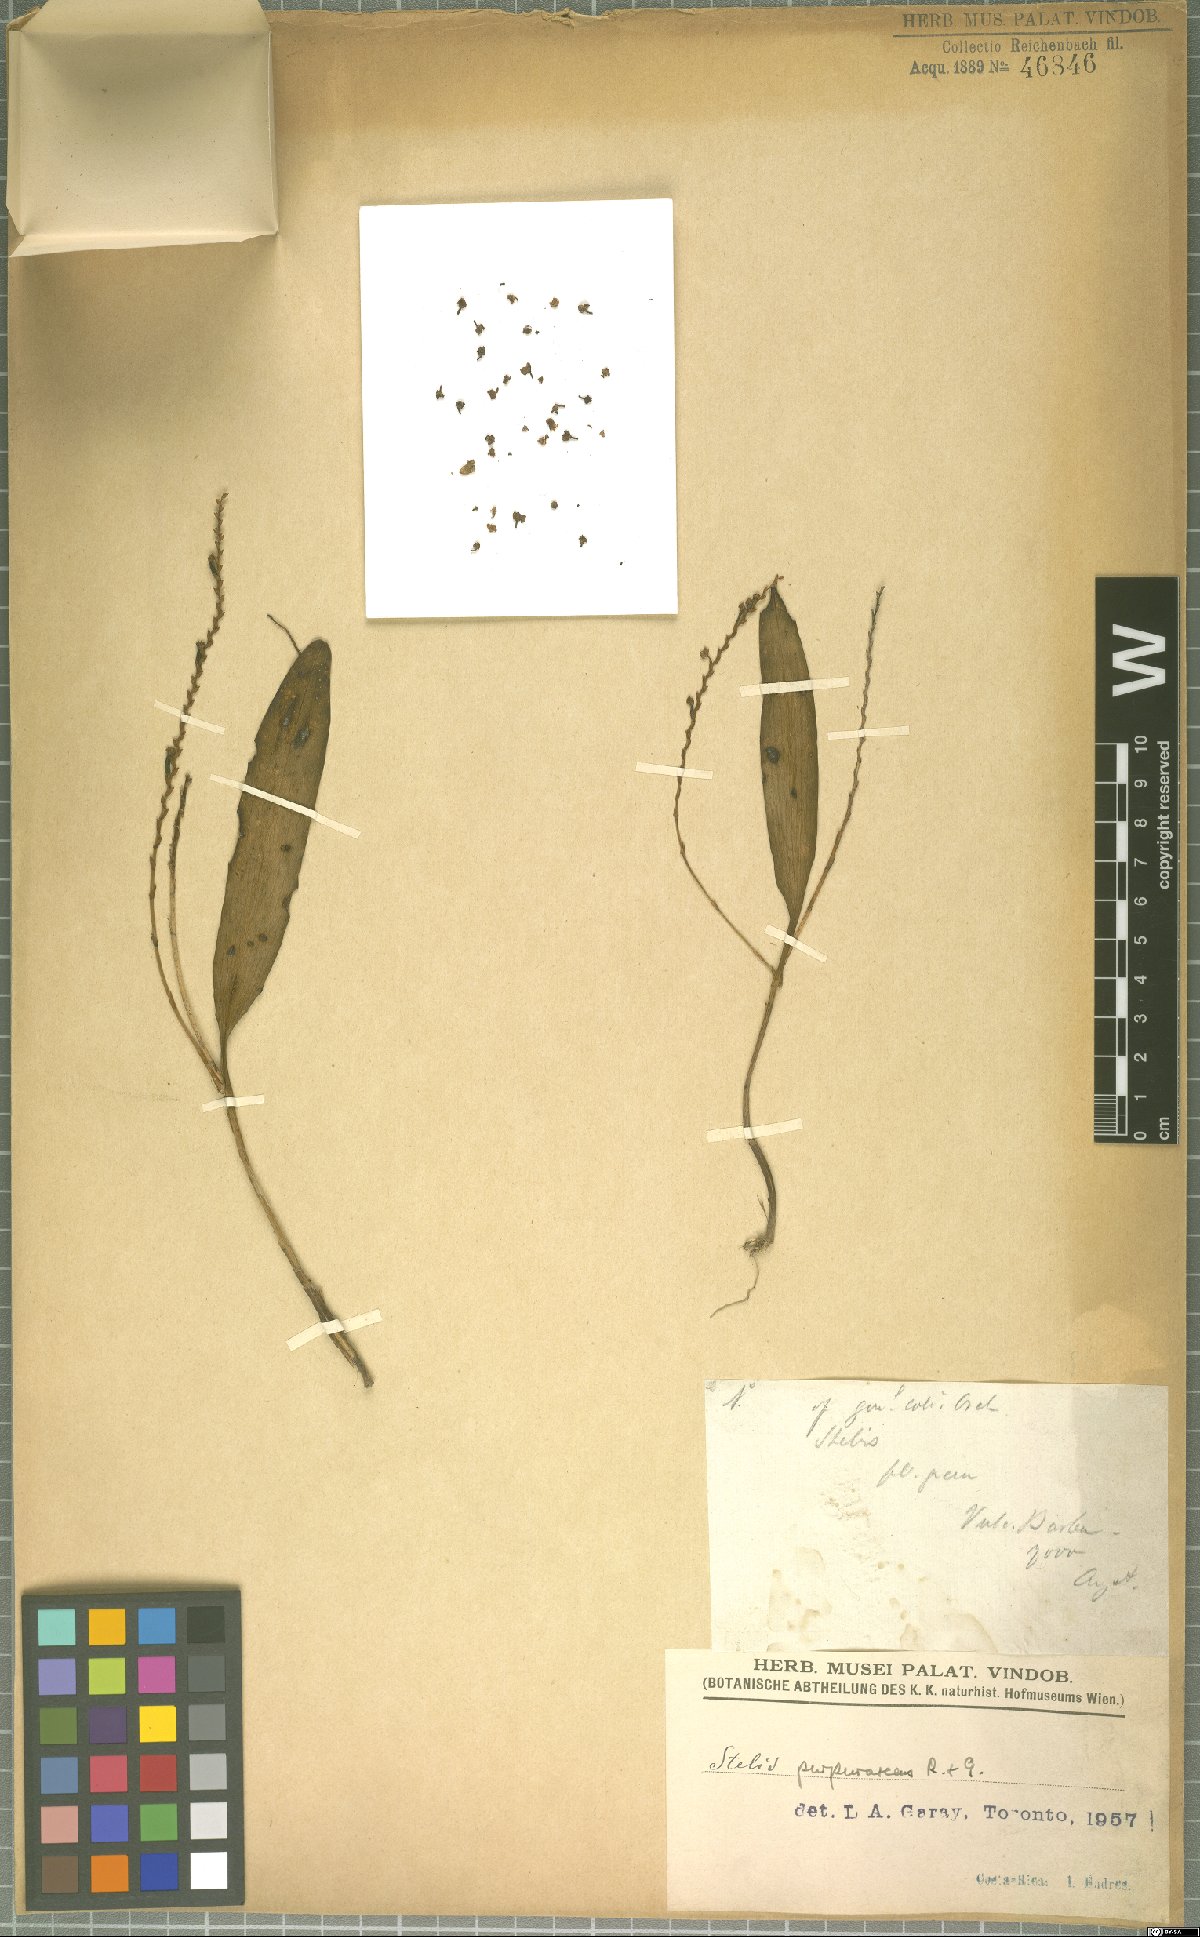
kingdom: Plantae
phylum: Tracheophyta
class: Liliopsida
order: Asparagales
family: Orchidaceae
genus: Stelis
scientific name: Stelis purpurascens
